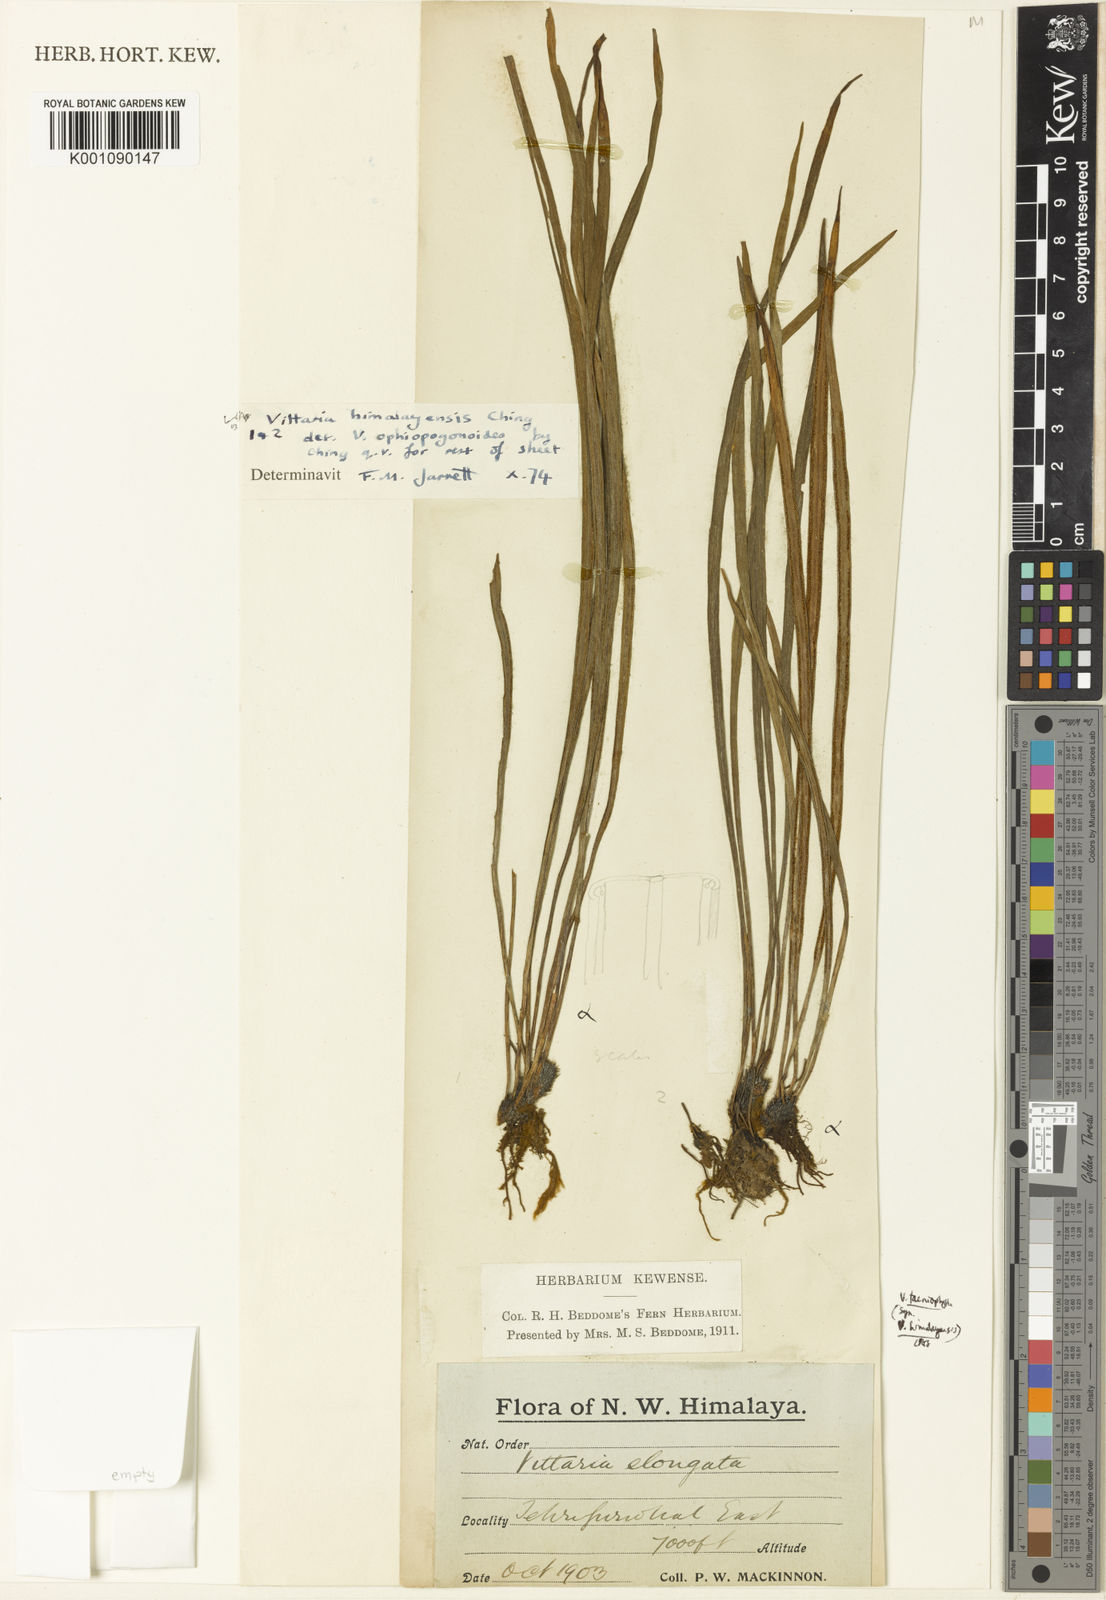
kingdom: Plantae
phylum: Tracheophyta
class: Polypodiopsida
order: Polypodiales
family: Pteridaceae
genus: Haplopteris
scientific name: Haplopteris taeniophylla
